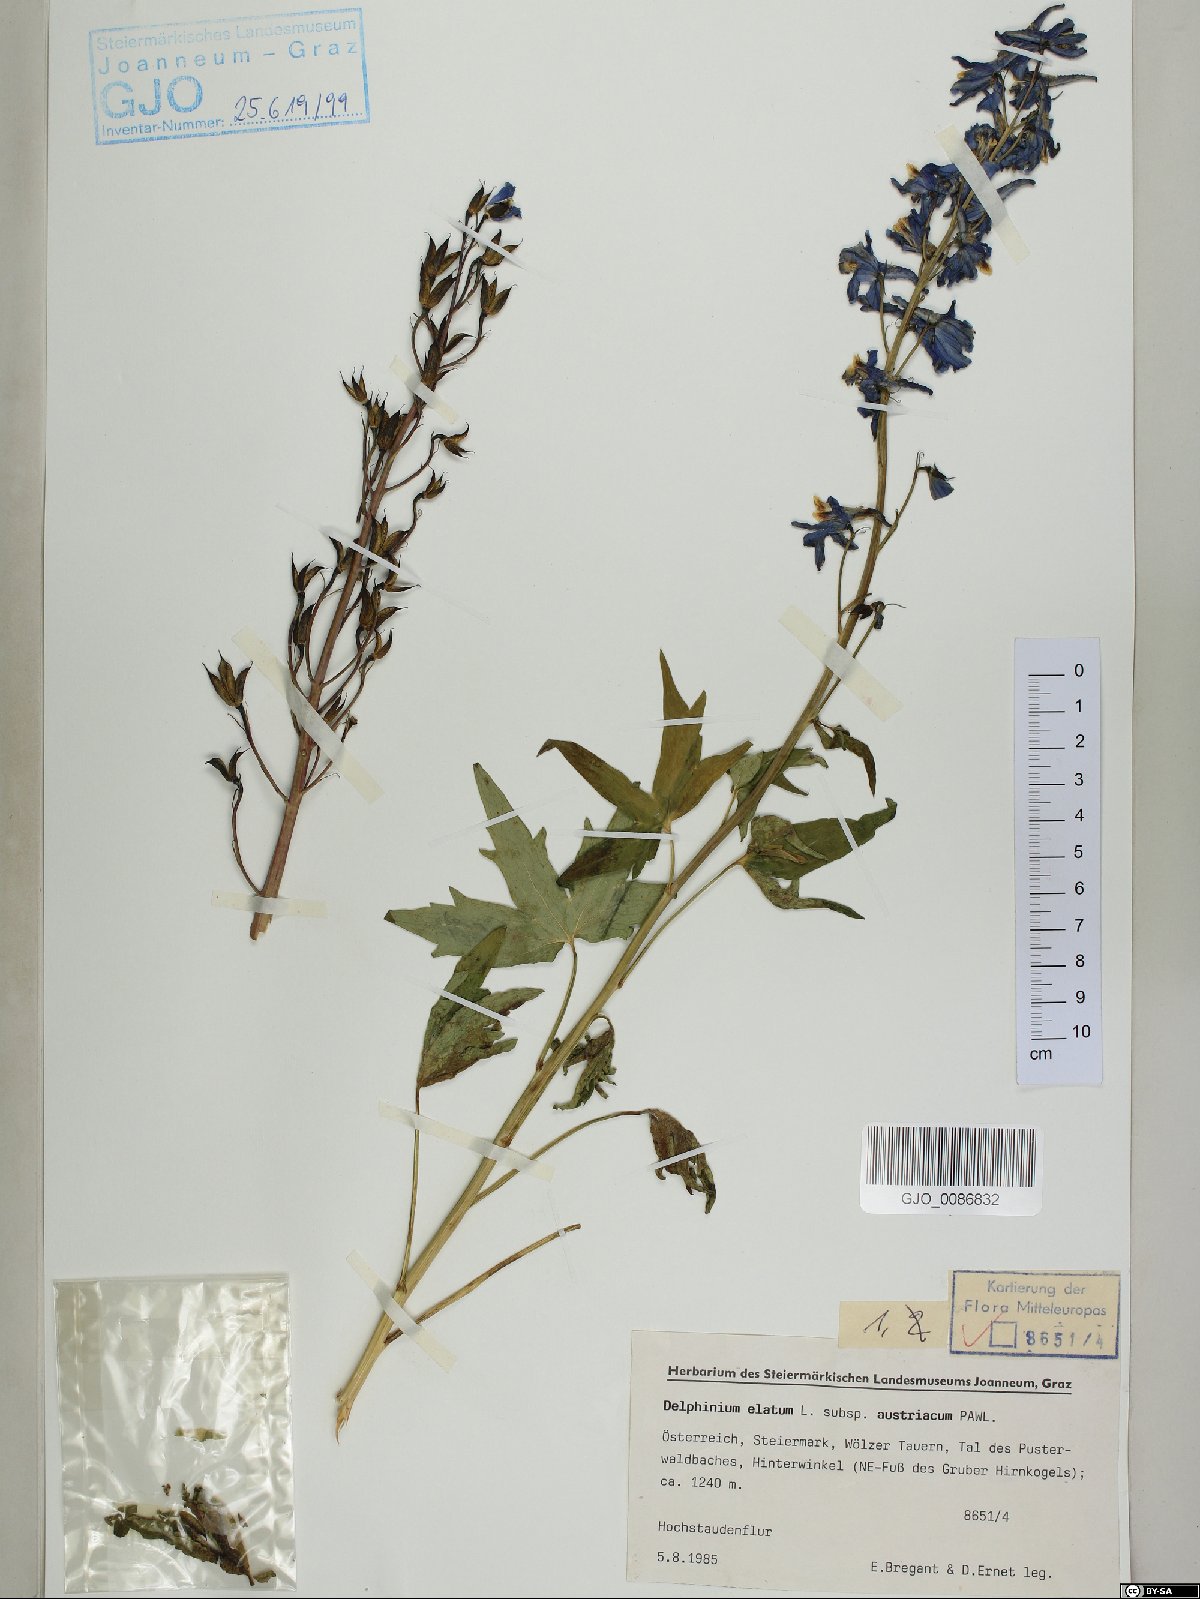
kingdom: Plantae
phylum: Tracheophyta
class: Magnoliopsida
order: Ranunculales
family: Ranunculaceae
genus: Delphinium
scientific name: Delphinium austriacum
